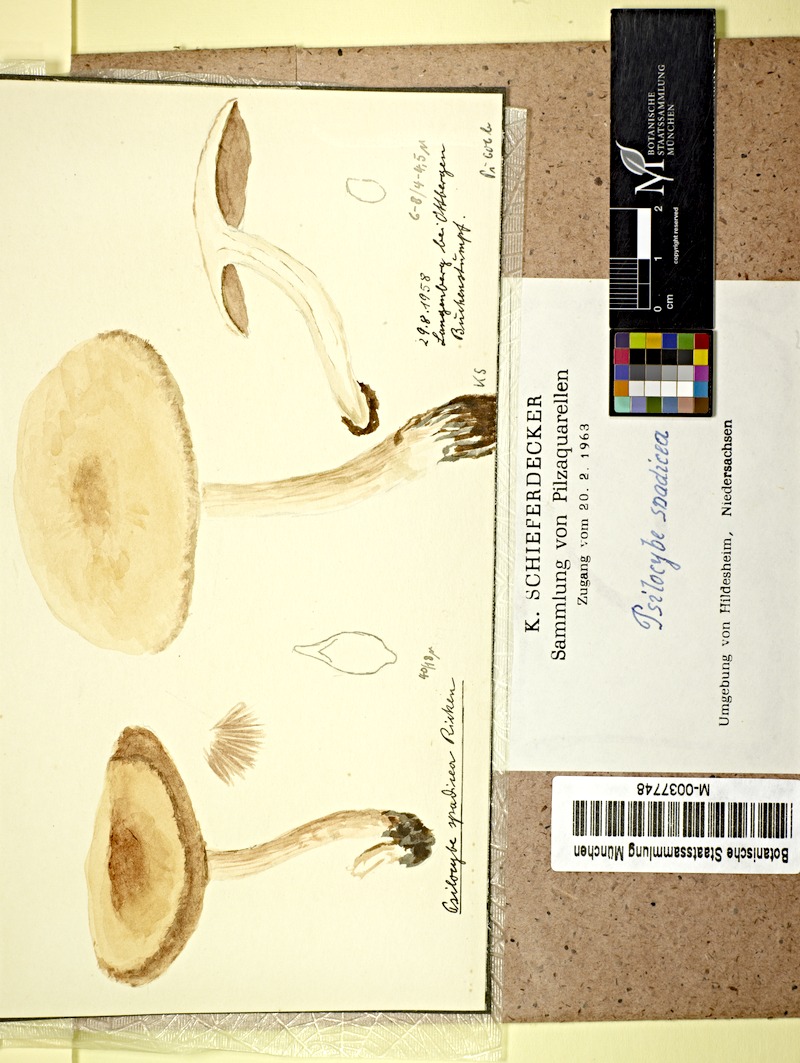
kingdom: Fungi
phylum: Basidiomycota
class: Agaricomycetes
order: Agaricales
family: Psathyrellaceae
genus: Homophron
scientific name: Homophron spadiceum
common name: Chestnut brittlestem
